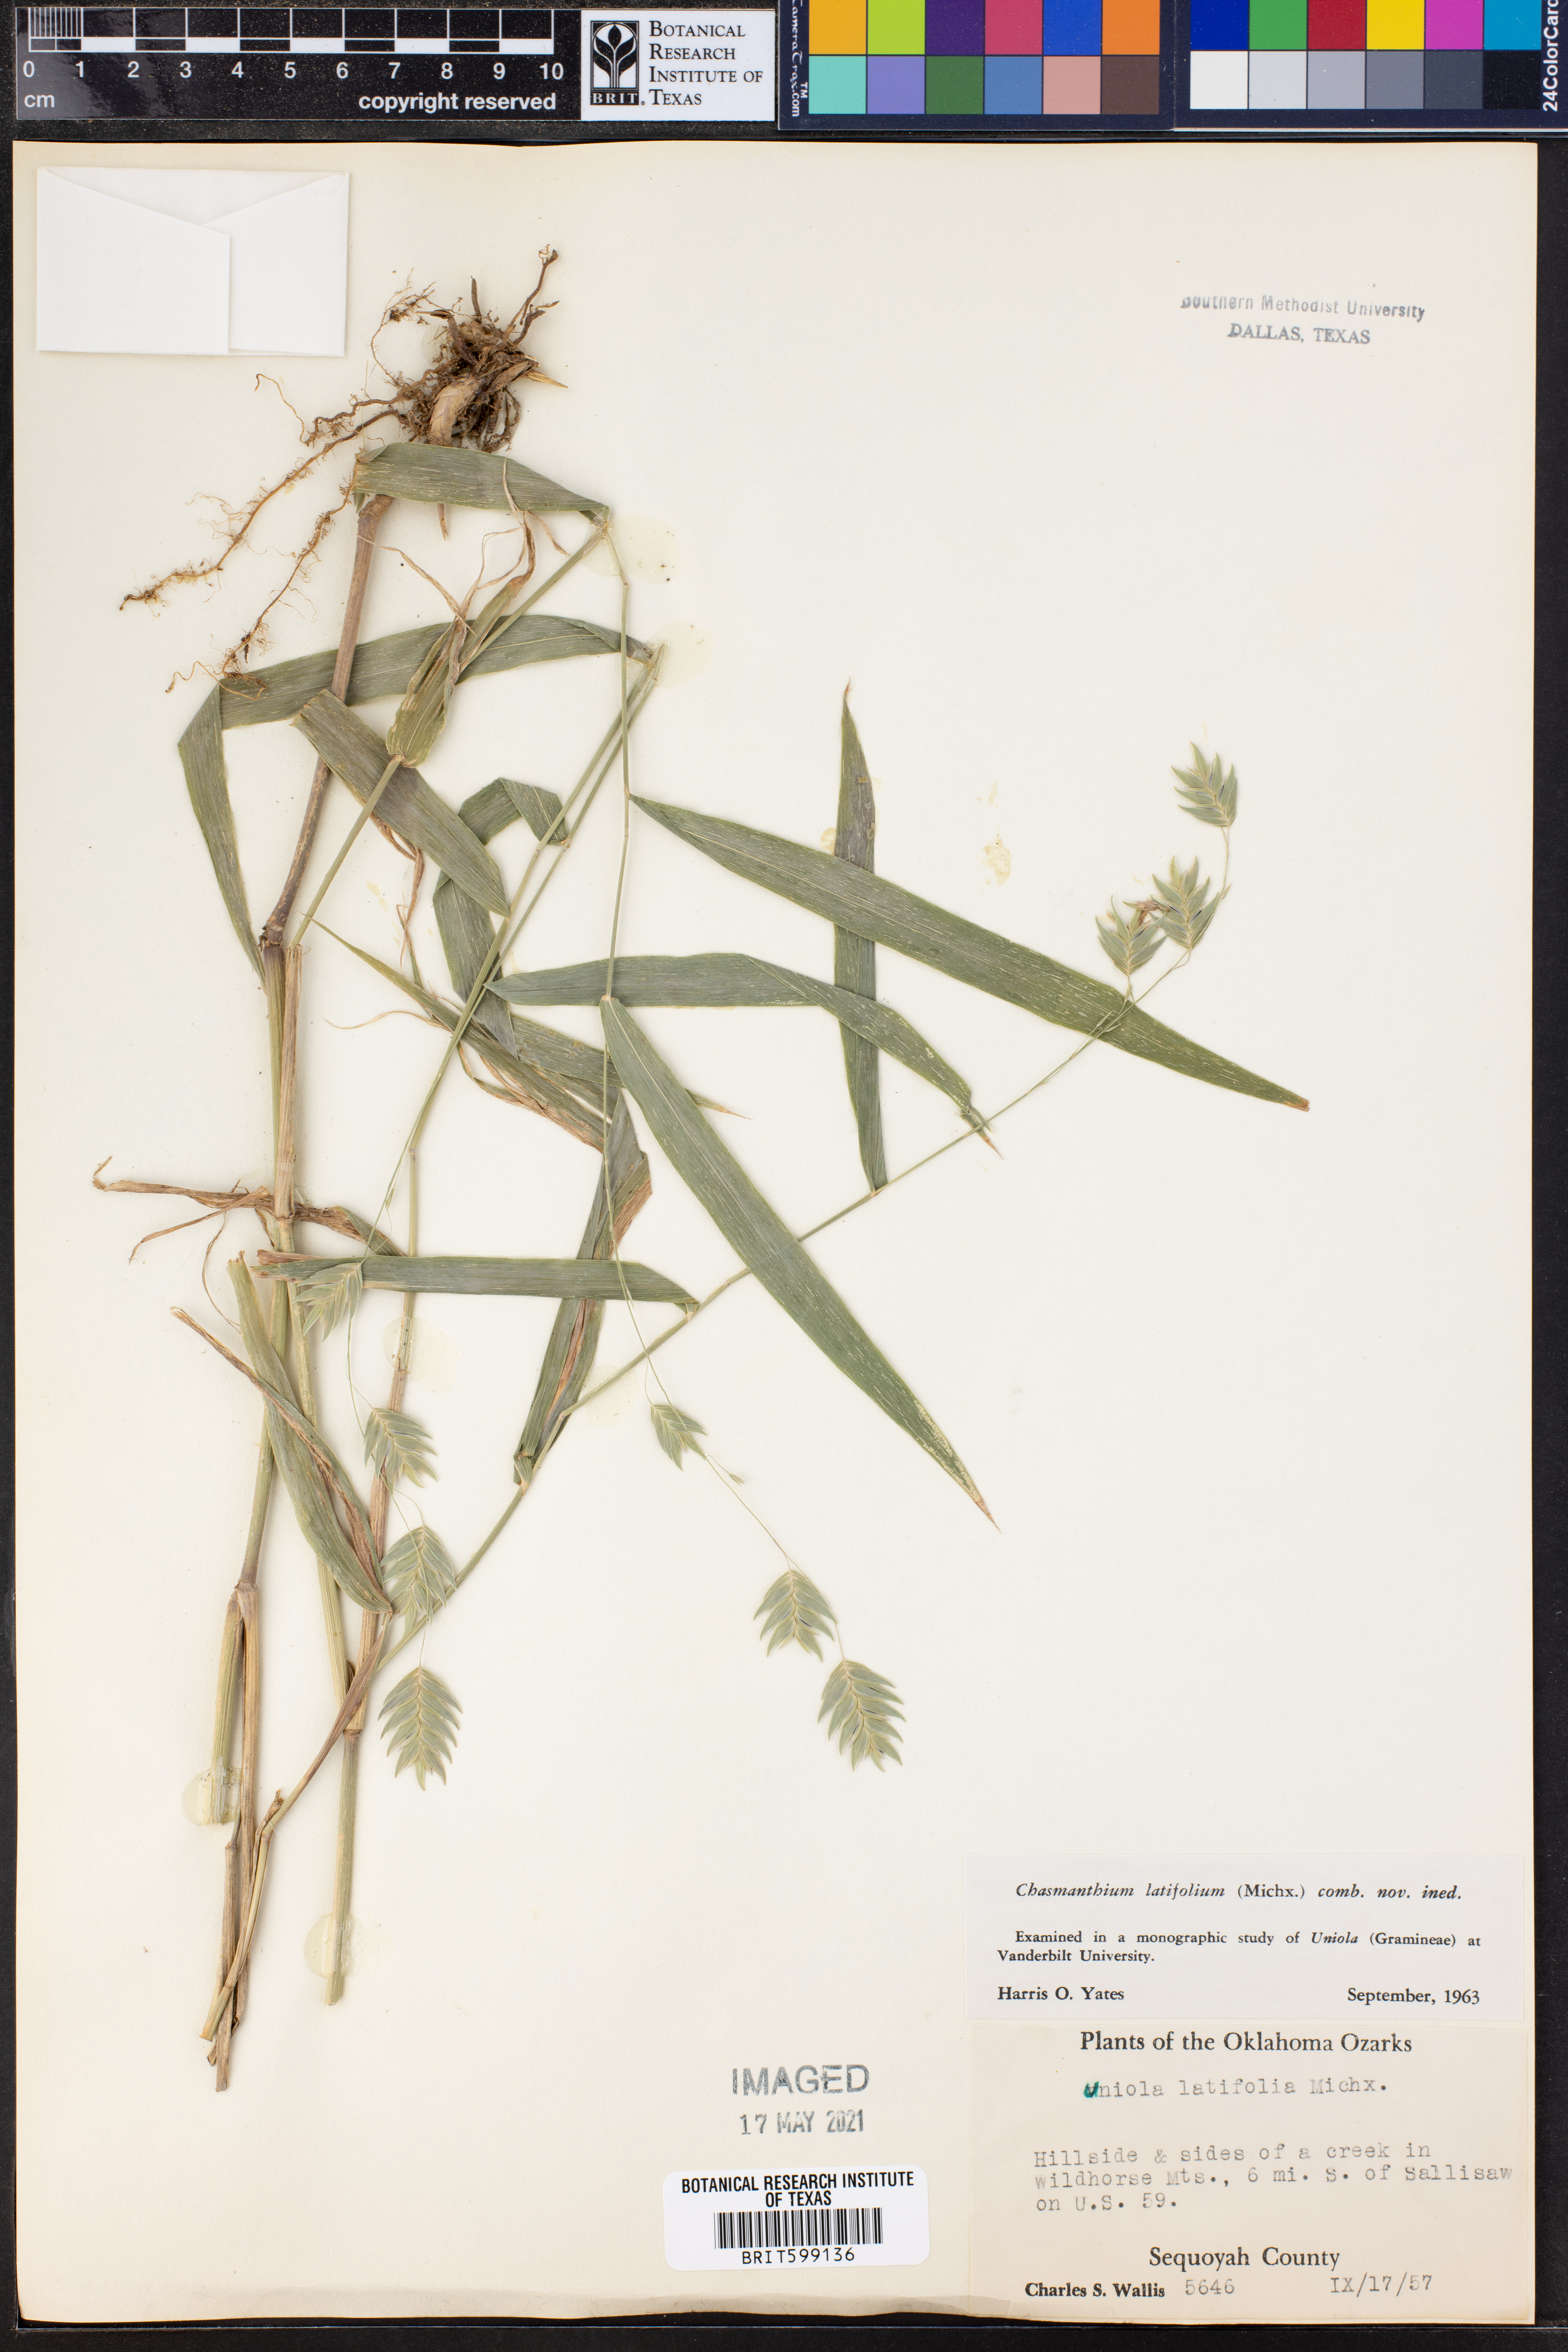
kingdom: Plantae
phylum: Tracheophyta
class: Liliopsida
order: Poales
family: Poaceae
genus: Chasmanthium
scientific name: Chasmanthium latifolium
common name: Broad-leaved chasmanthium
